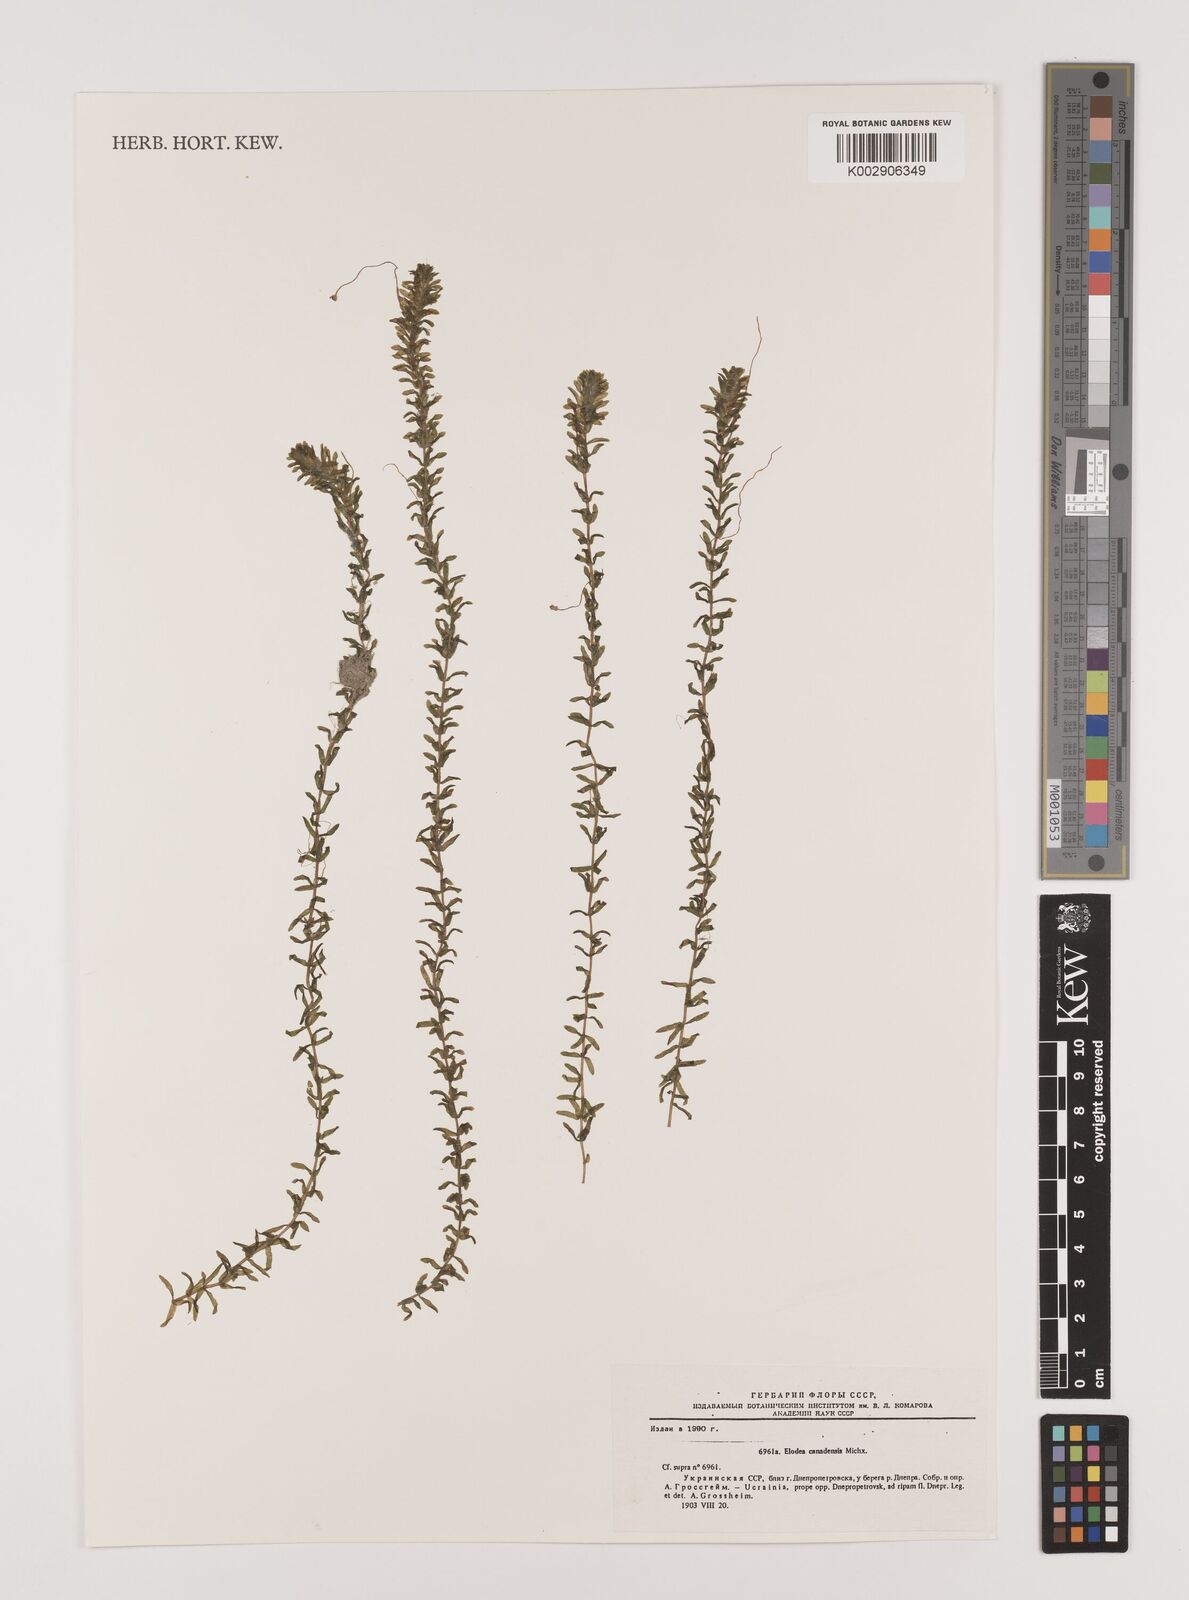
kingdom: Plantae
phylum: Tracheophyta
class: Liliopsida
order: Alismatales
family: Hydrocharitaceae
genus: Elodea
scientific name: Elodea canadensis
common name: Canadian waterweed
